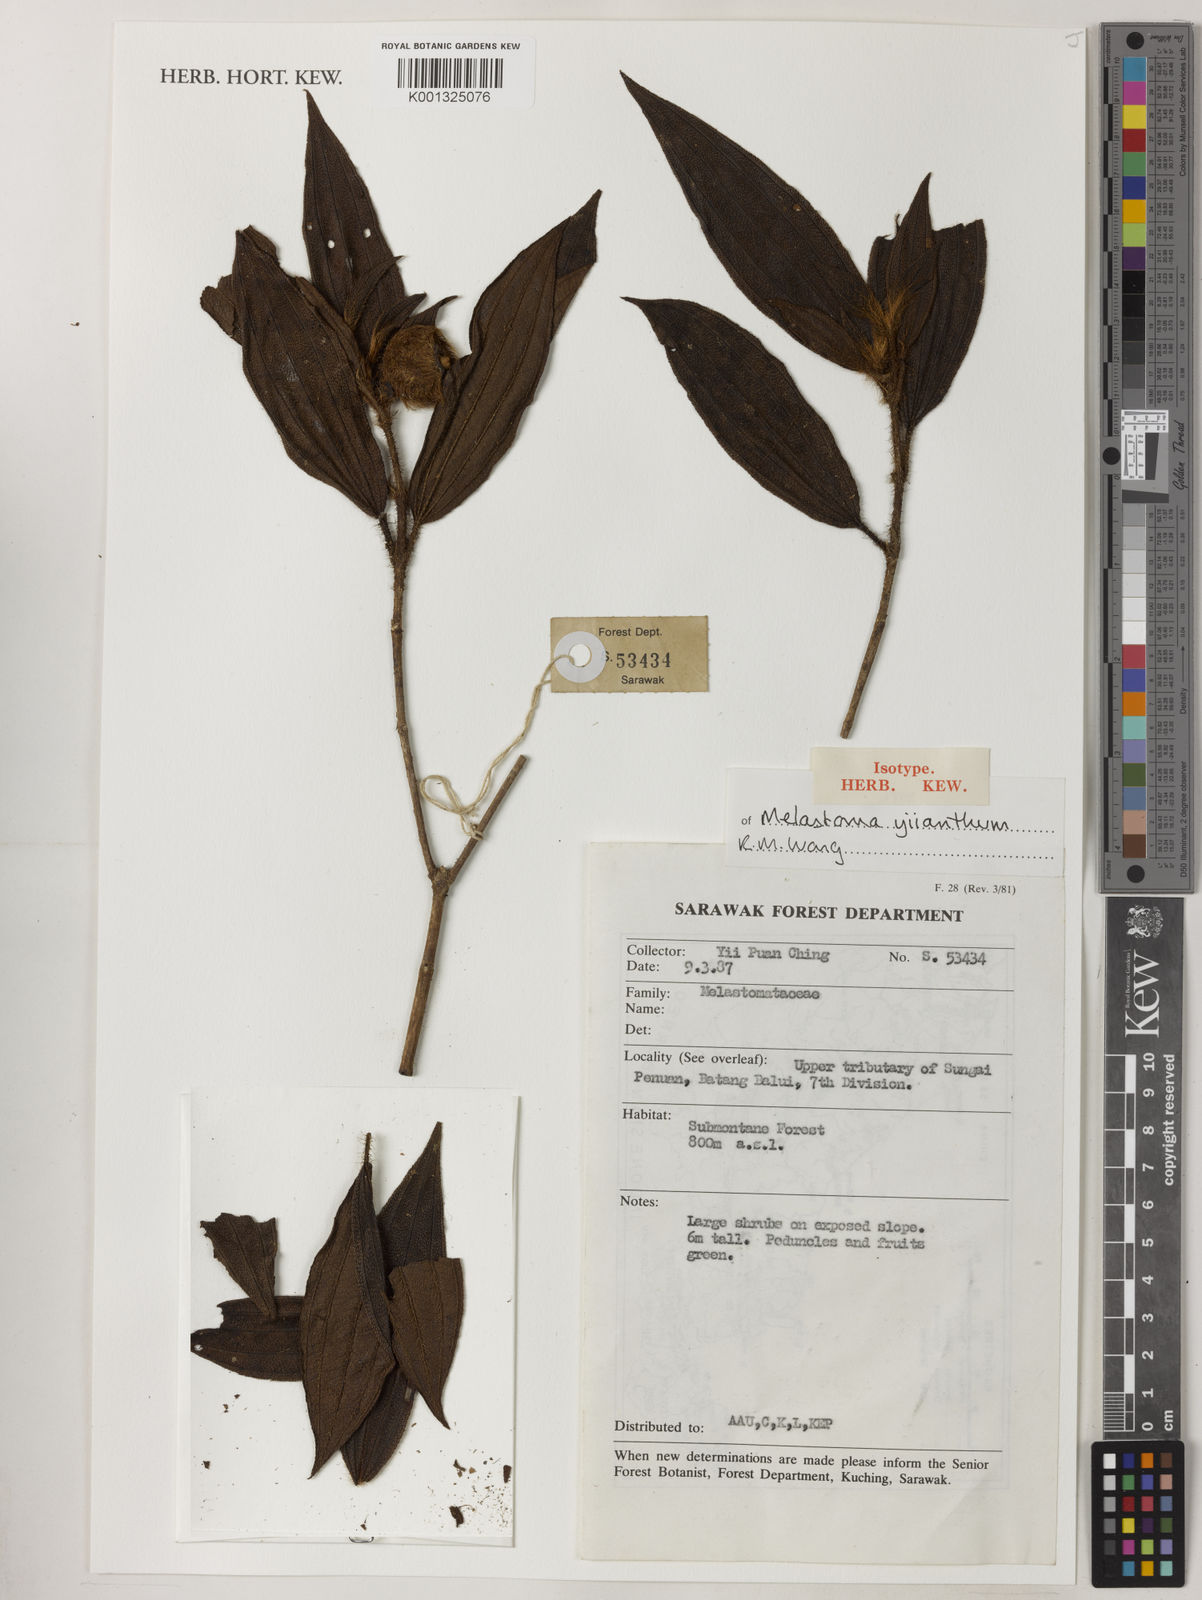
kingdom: Plantae
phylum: Tracheophyta
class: Magnoliopsida
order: Myrtales
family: Melastomataceae
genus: Melastoma
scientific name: Melastoma yiianthum
